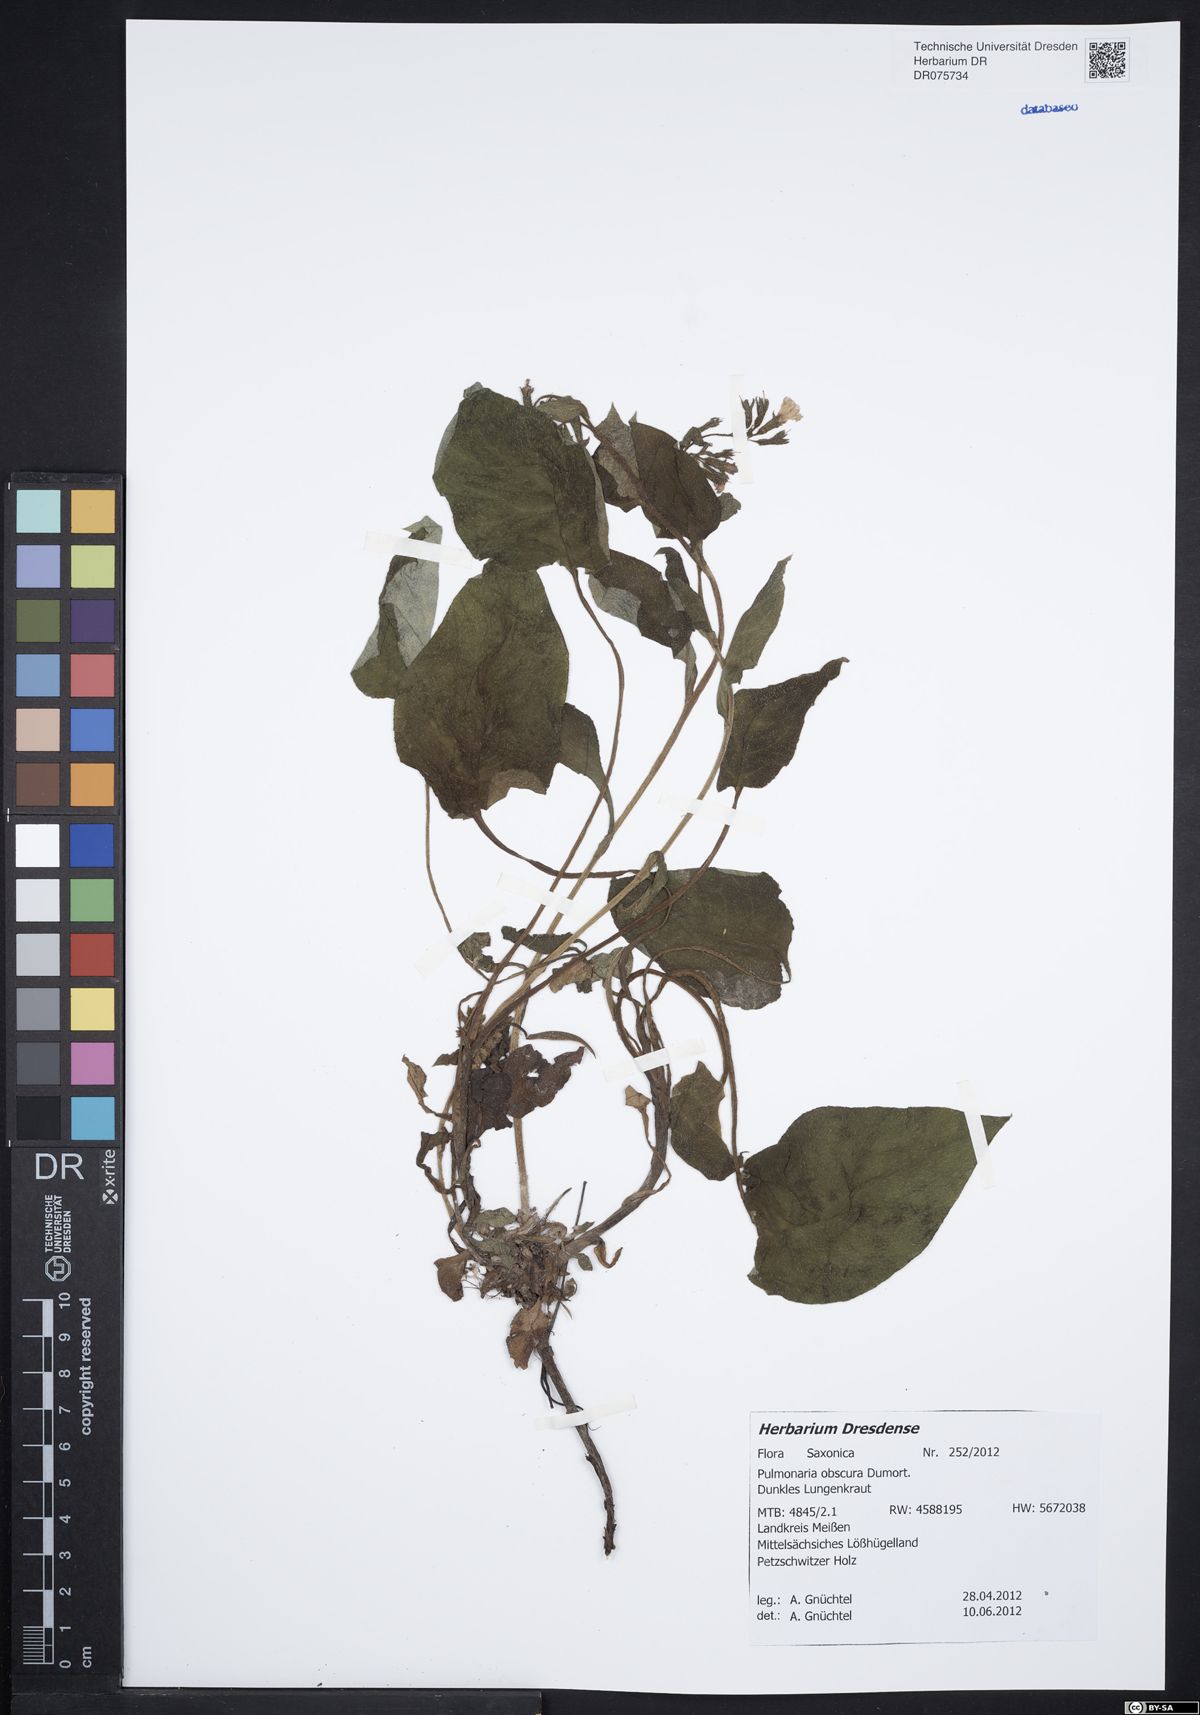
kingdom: Plantae
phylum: Tracheophyta
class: Magnoliopsida
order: Boraginales
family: Boraginaceae
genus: Pulmonaria
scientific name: Pulmonaria obscura
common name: Suffolk lungwort
